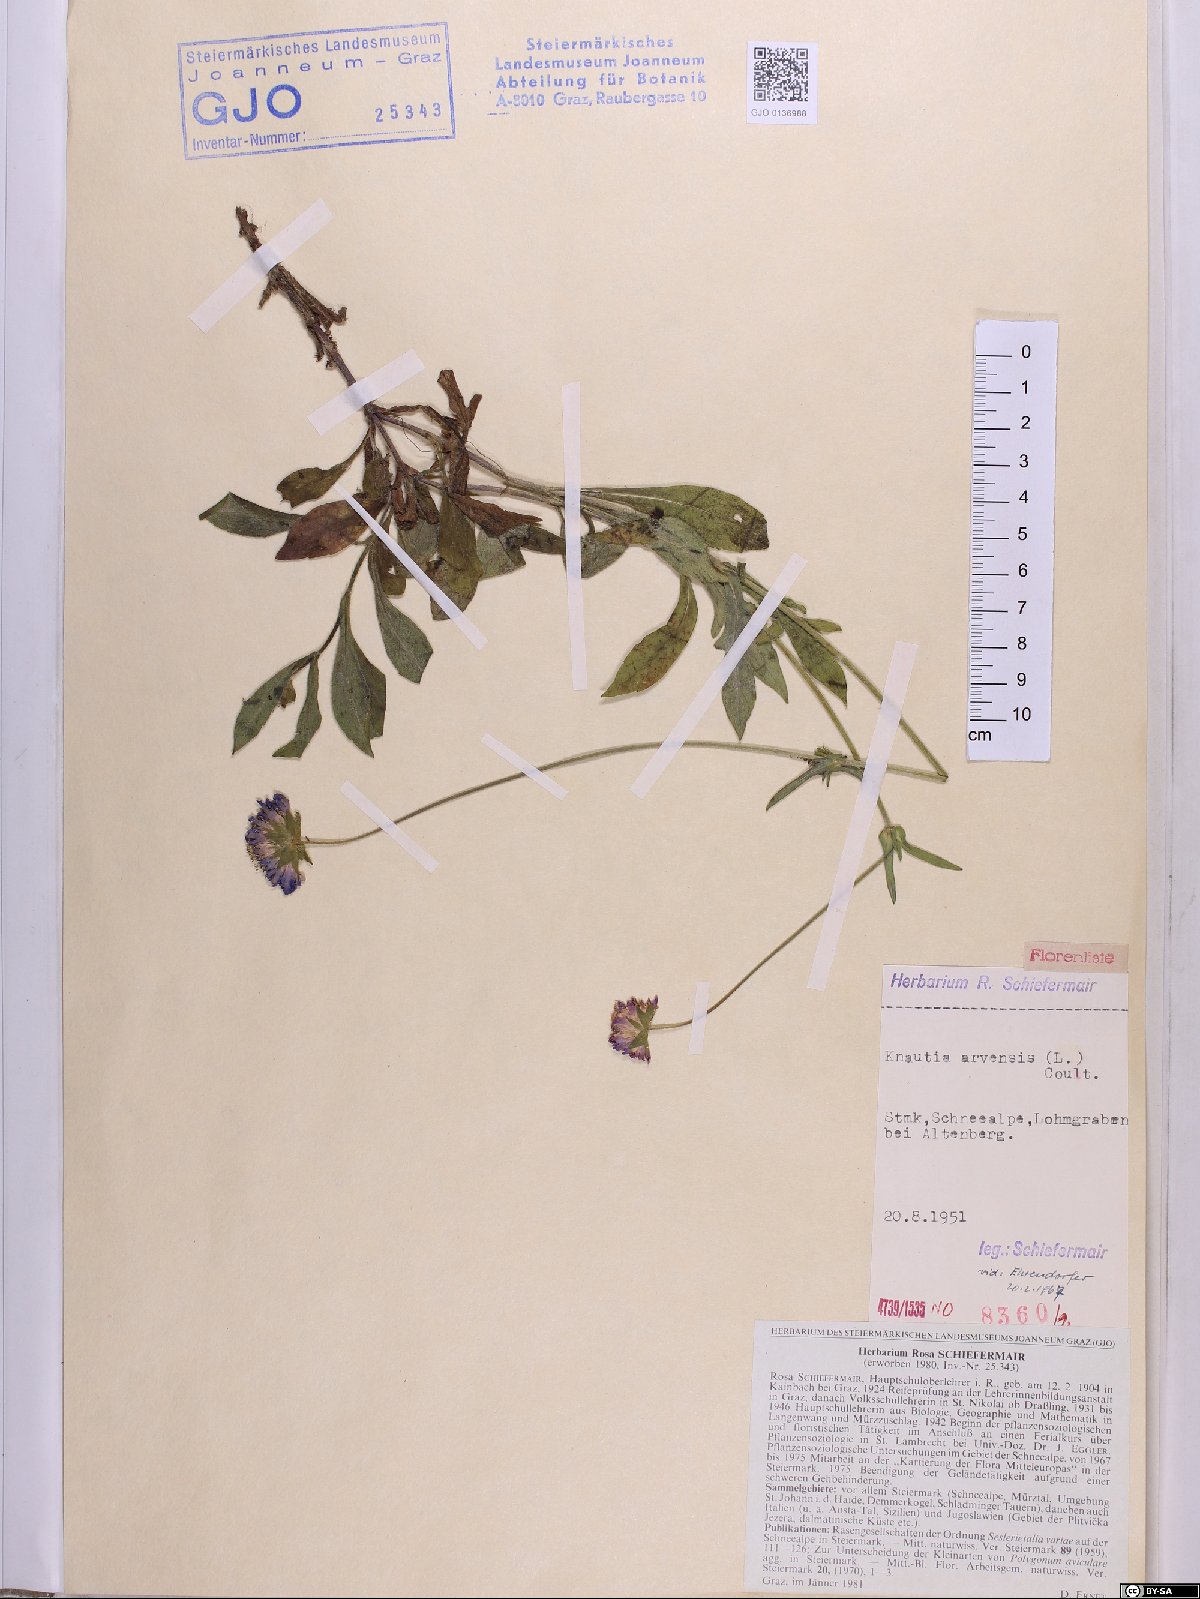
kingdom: Plantae
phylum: Tracheophyta
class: Magnoliopsida
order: Dipsacales
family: Caprifoliaceae
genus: Knautia
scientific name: Knautia arvensis
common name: Field scabiosa
